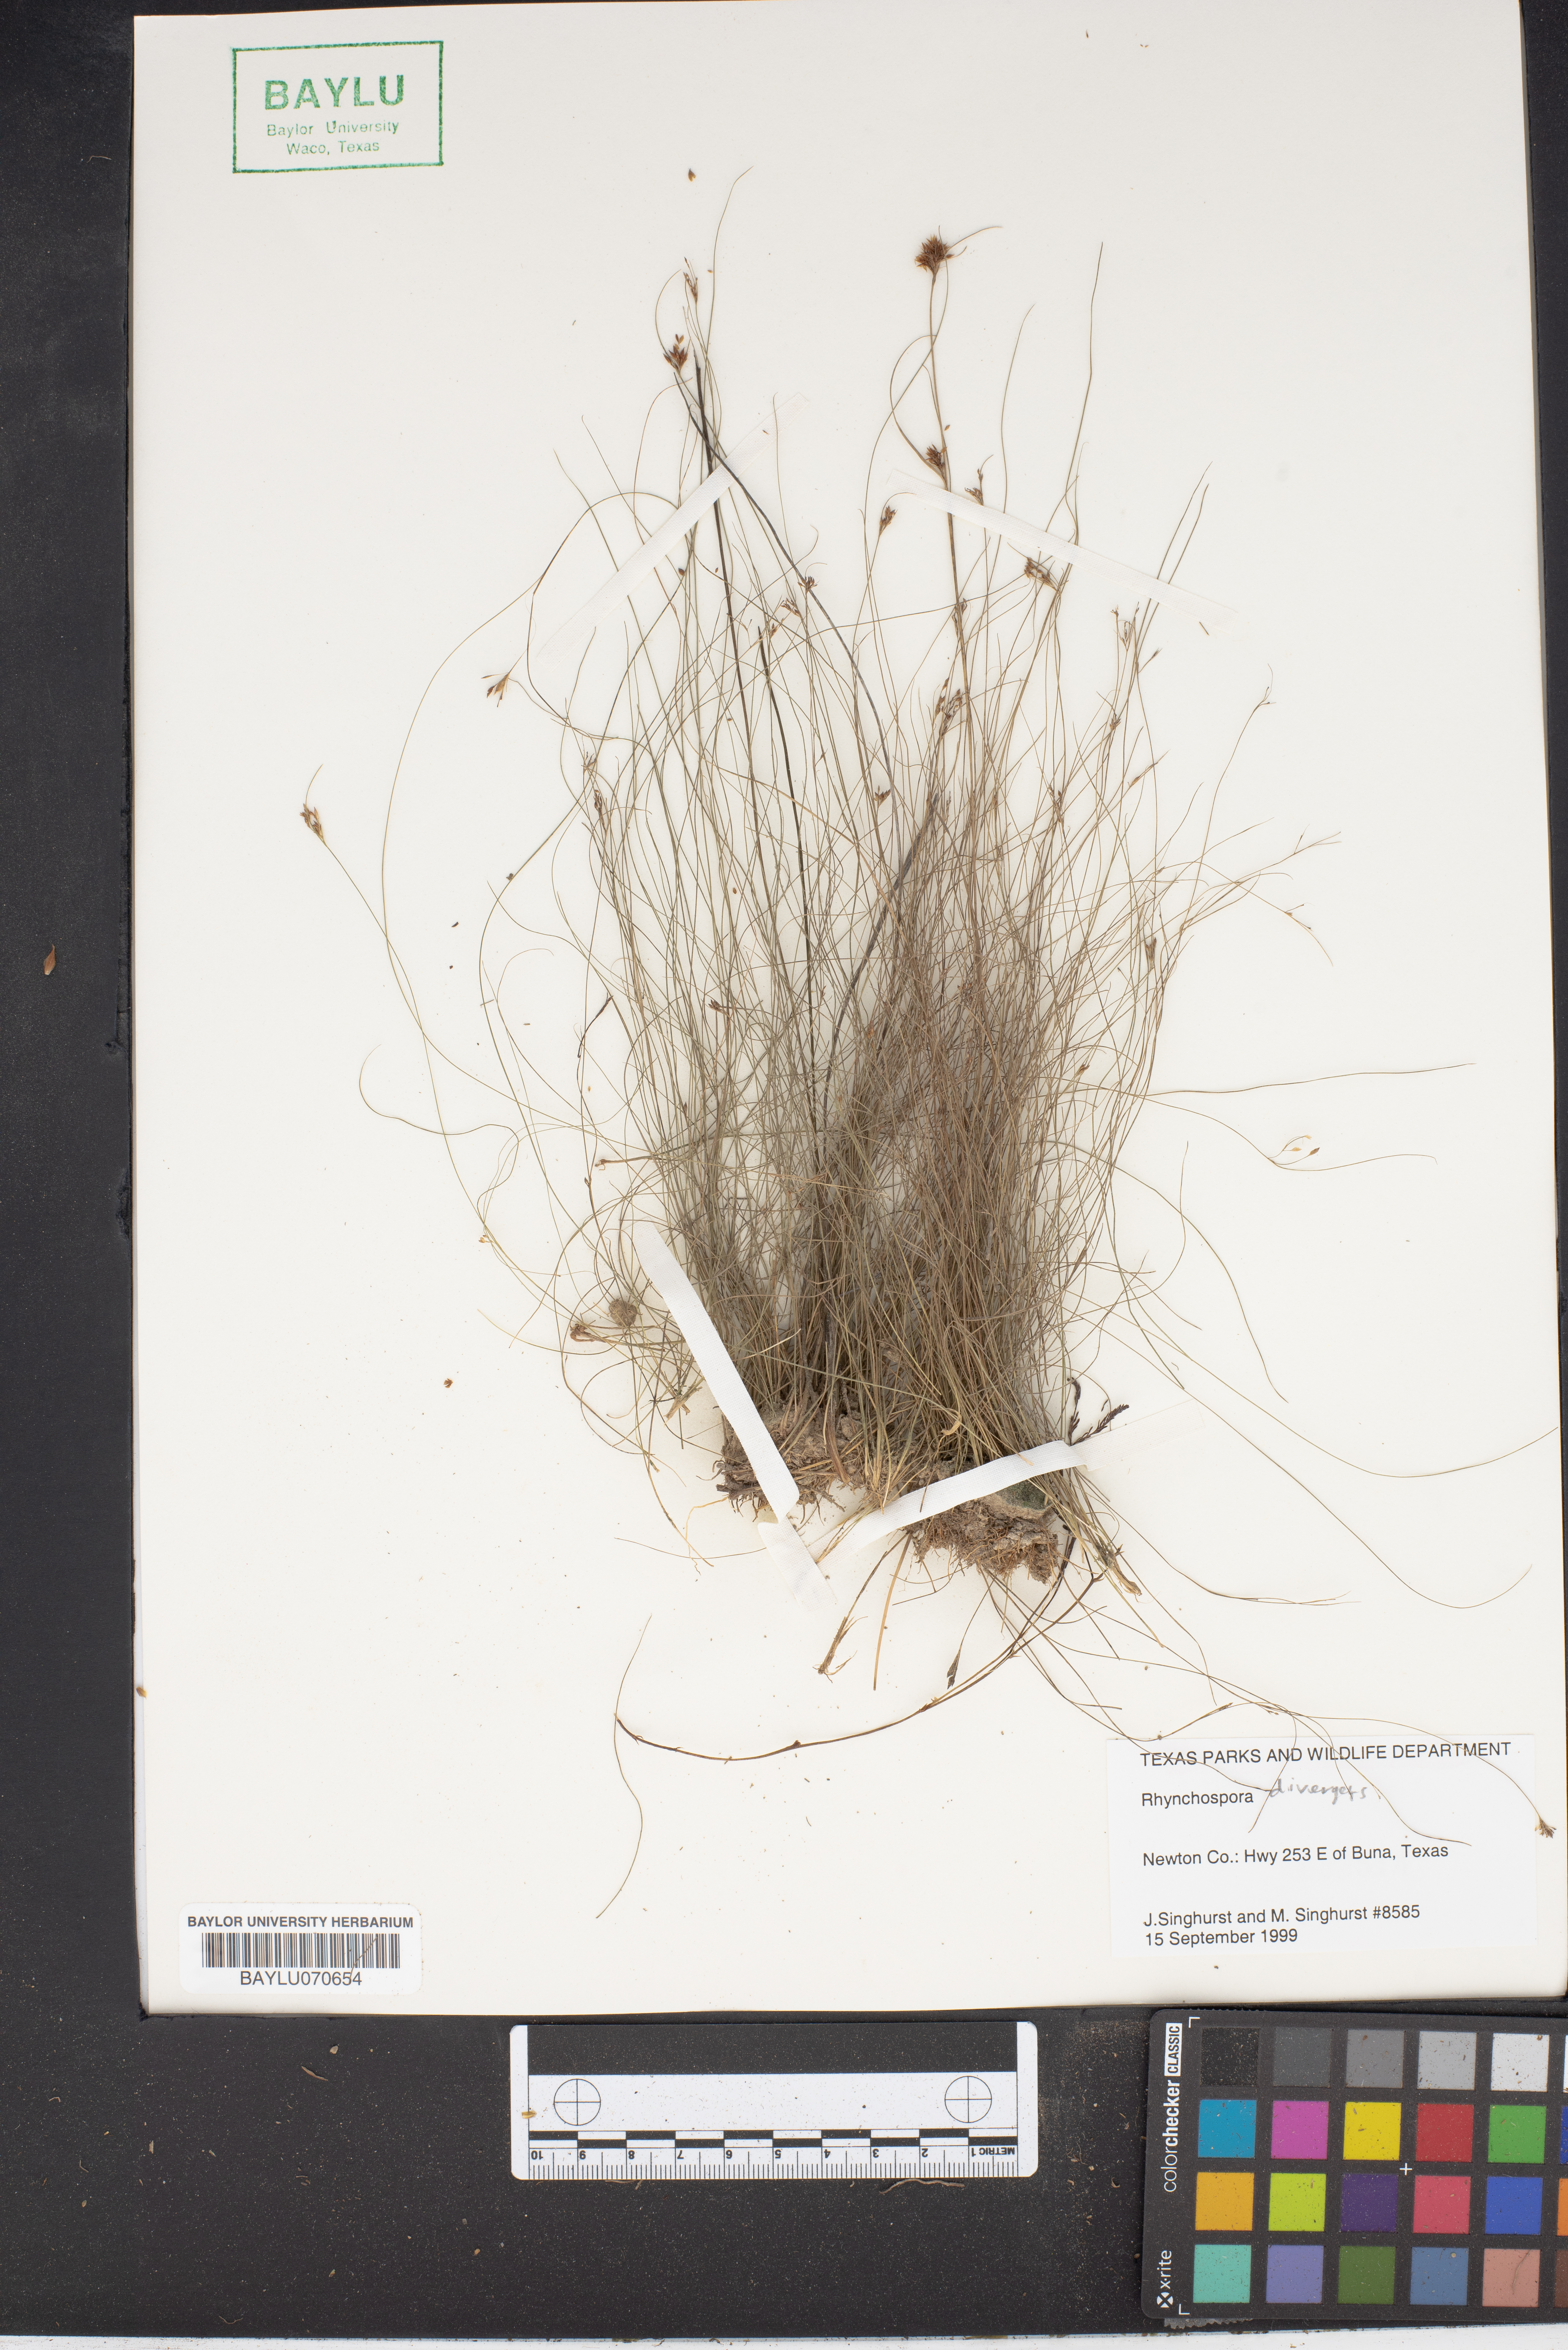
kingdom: Plantae
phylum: Tracheophyta
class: Liliopsida
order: Poales
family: Cyperaceae
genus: Rhynchospora
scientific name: Rhynchospora divergens
